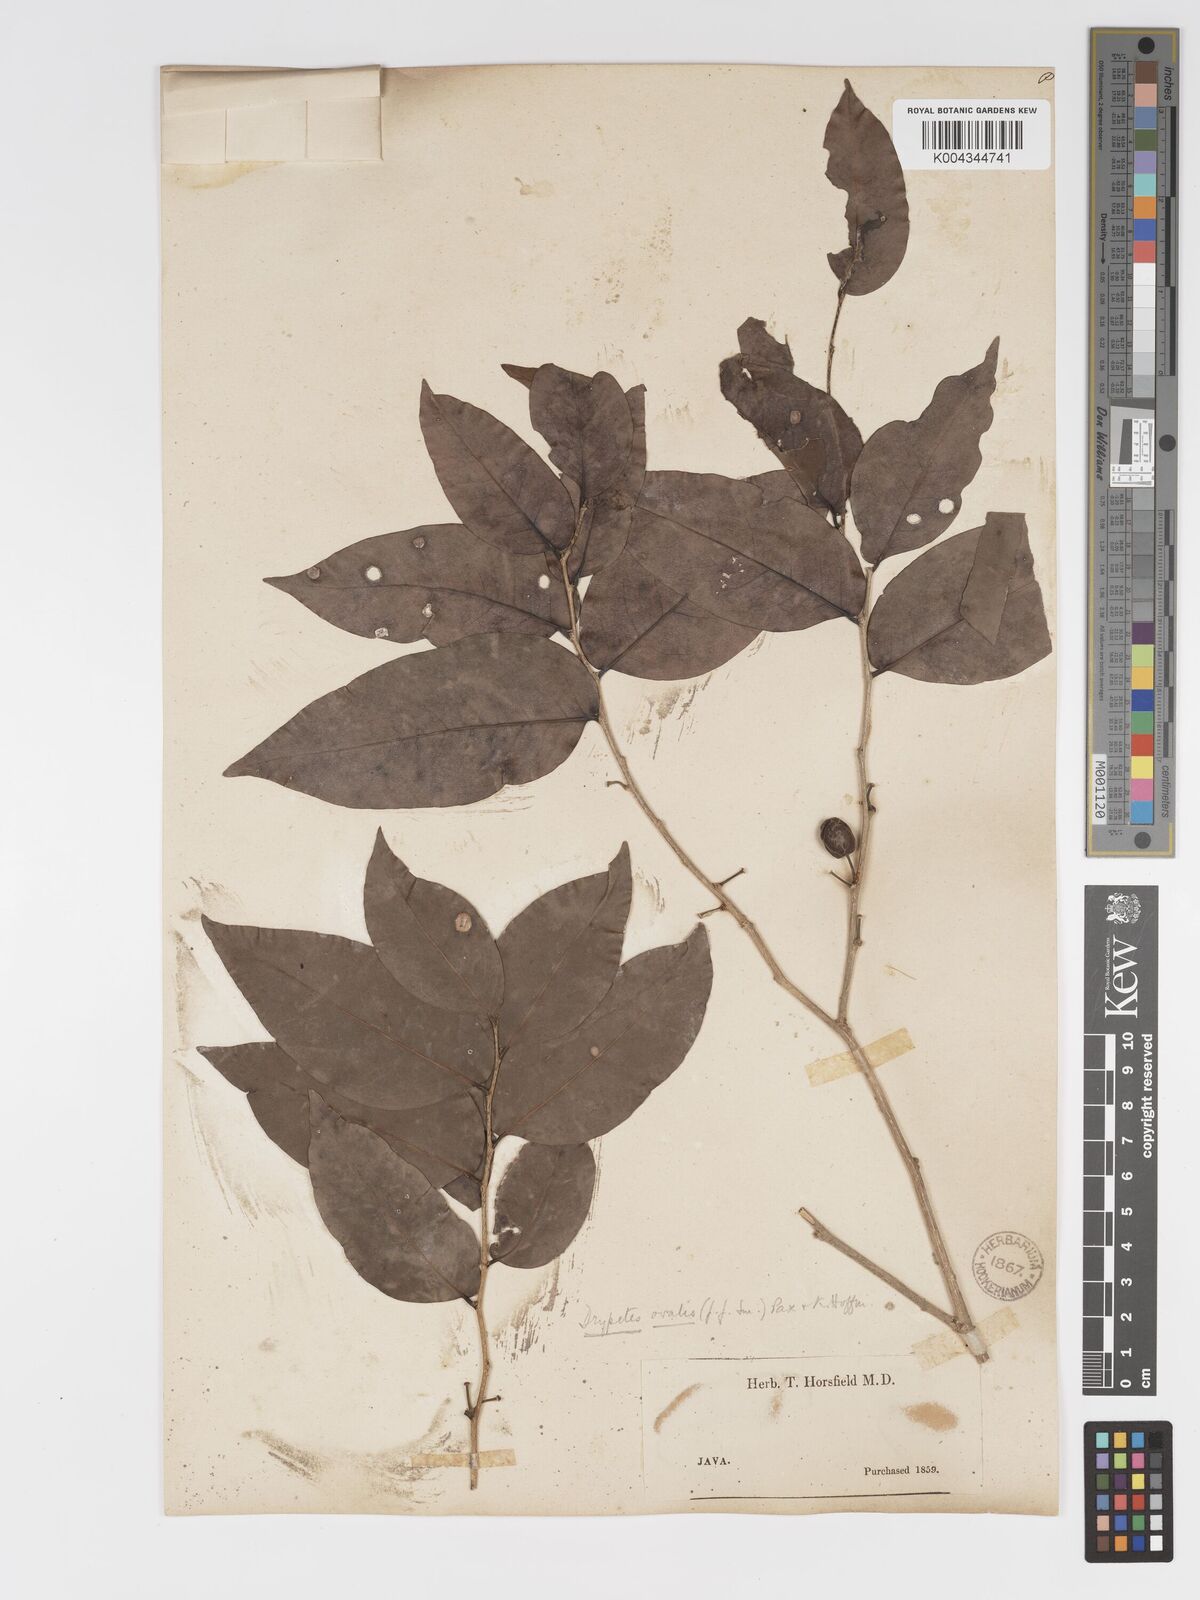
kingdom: Plantae
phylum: Tracheophyta
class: Magnoliopsida
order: Malpighiales
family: Putranjivaceae
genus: Drypetes
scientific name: Drypetes ovalis
